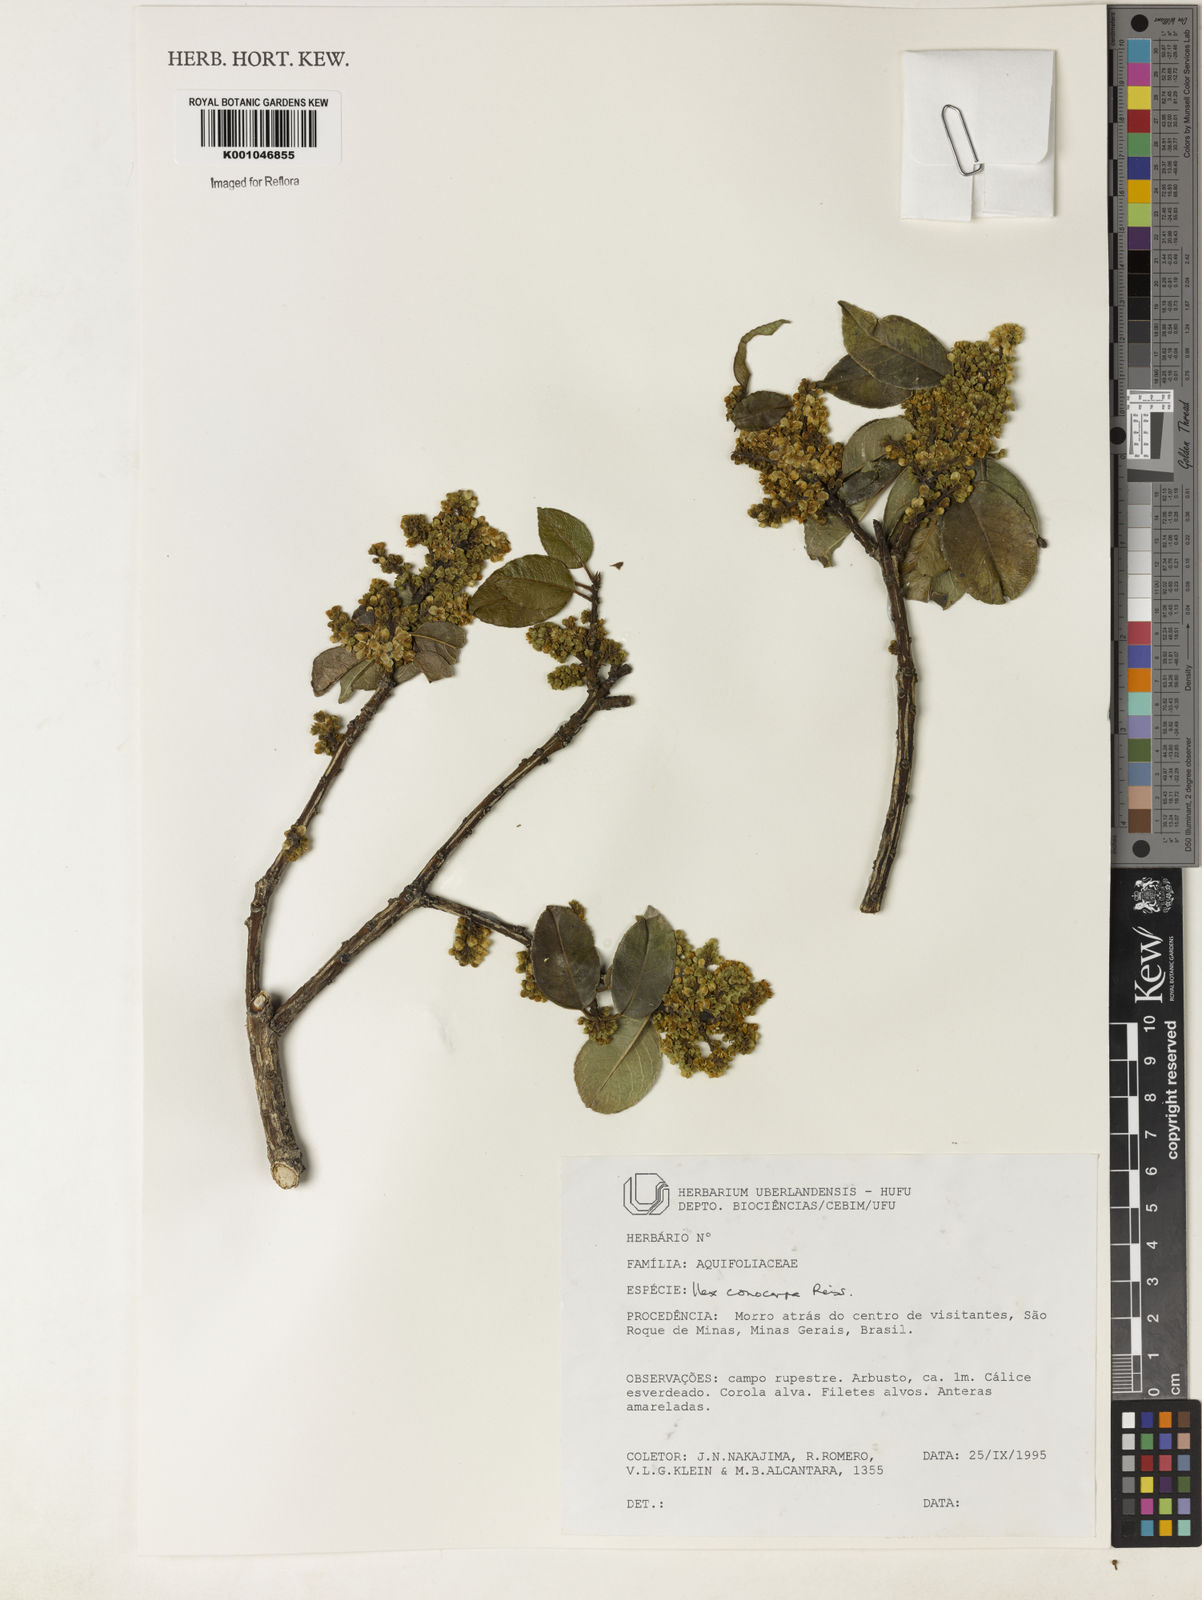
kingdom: Plantae
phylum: Tracheophyta
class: Magnoliopsida
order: Aquifoliales
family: Aquifoliaceae
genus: Ilex
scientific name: Ilex conocarpa
